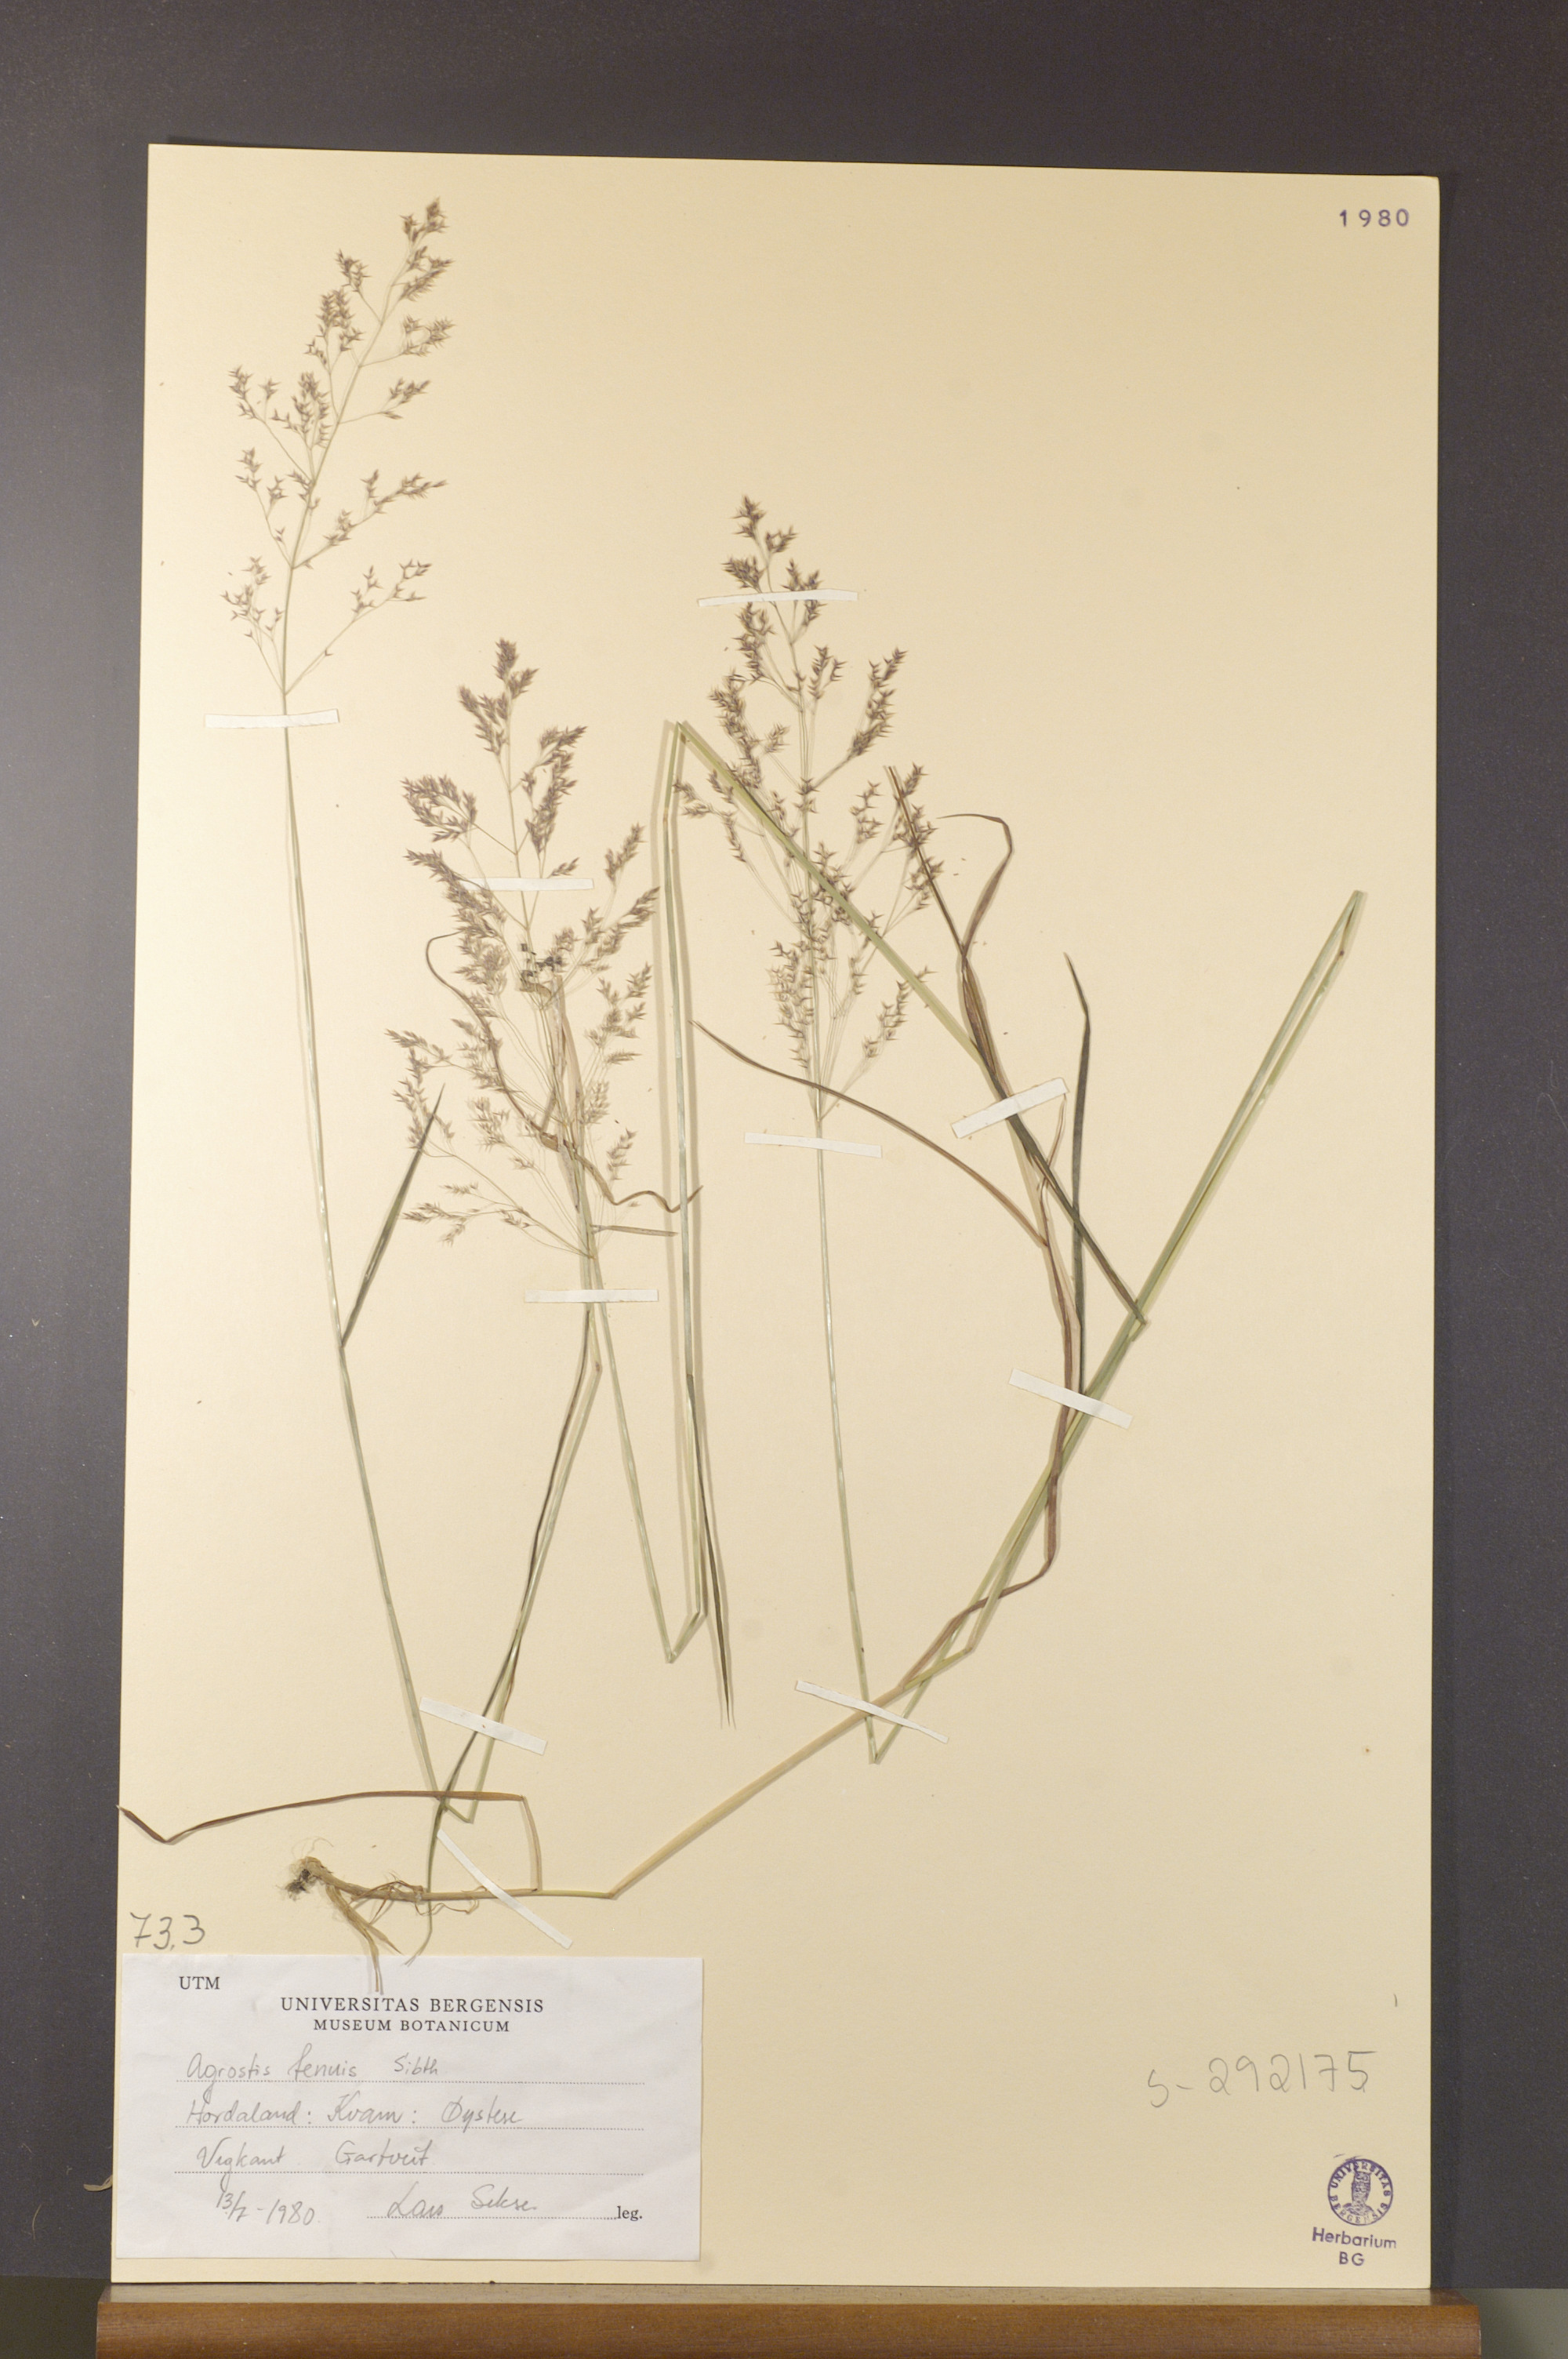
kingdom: Plantae
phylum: Tracheophyta
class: Liliopsida
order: Poales
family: Poaceae
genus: Agrostis
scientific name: Agrostis capillaris
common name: Colonial bentgrass
